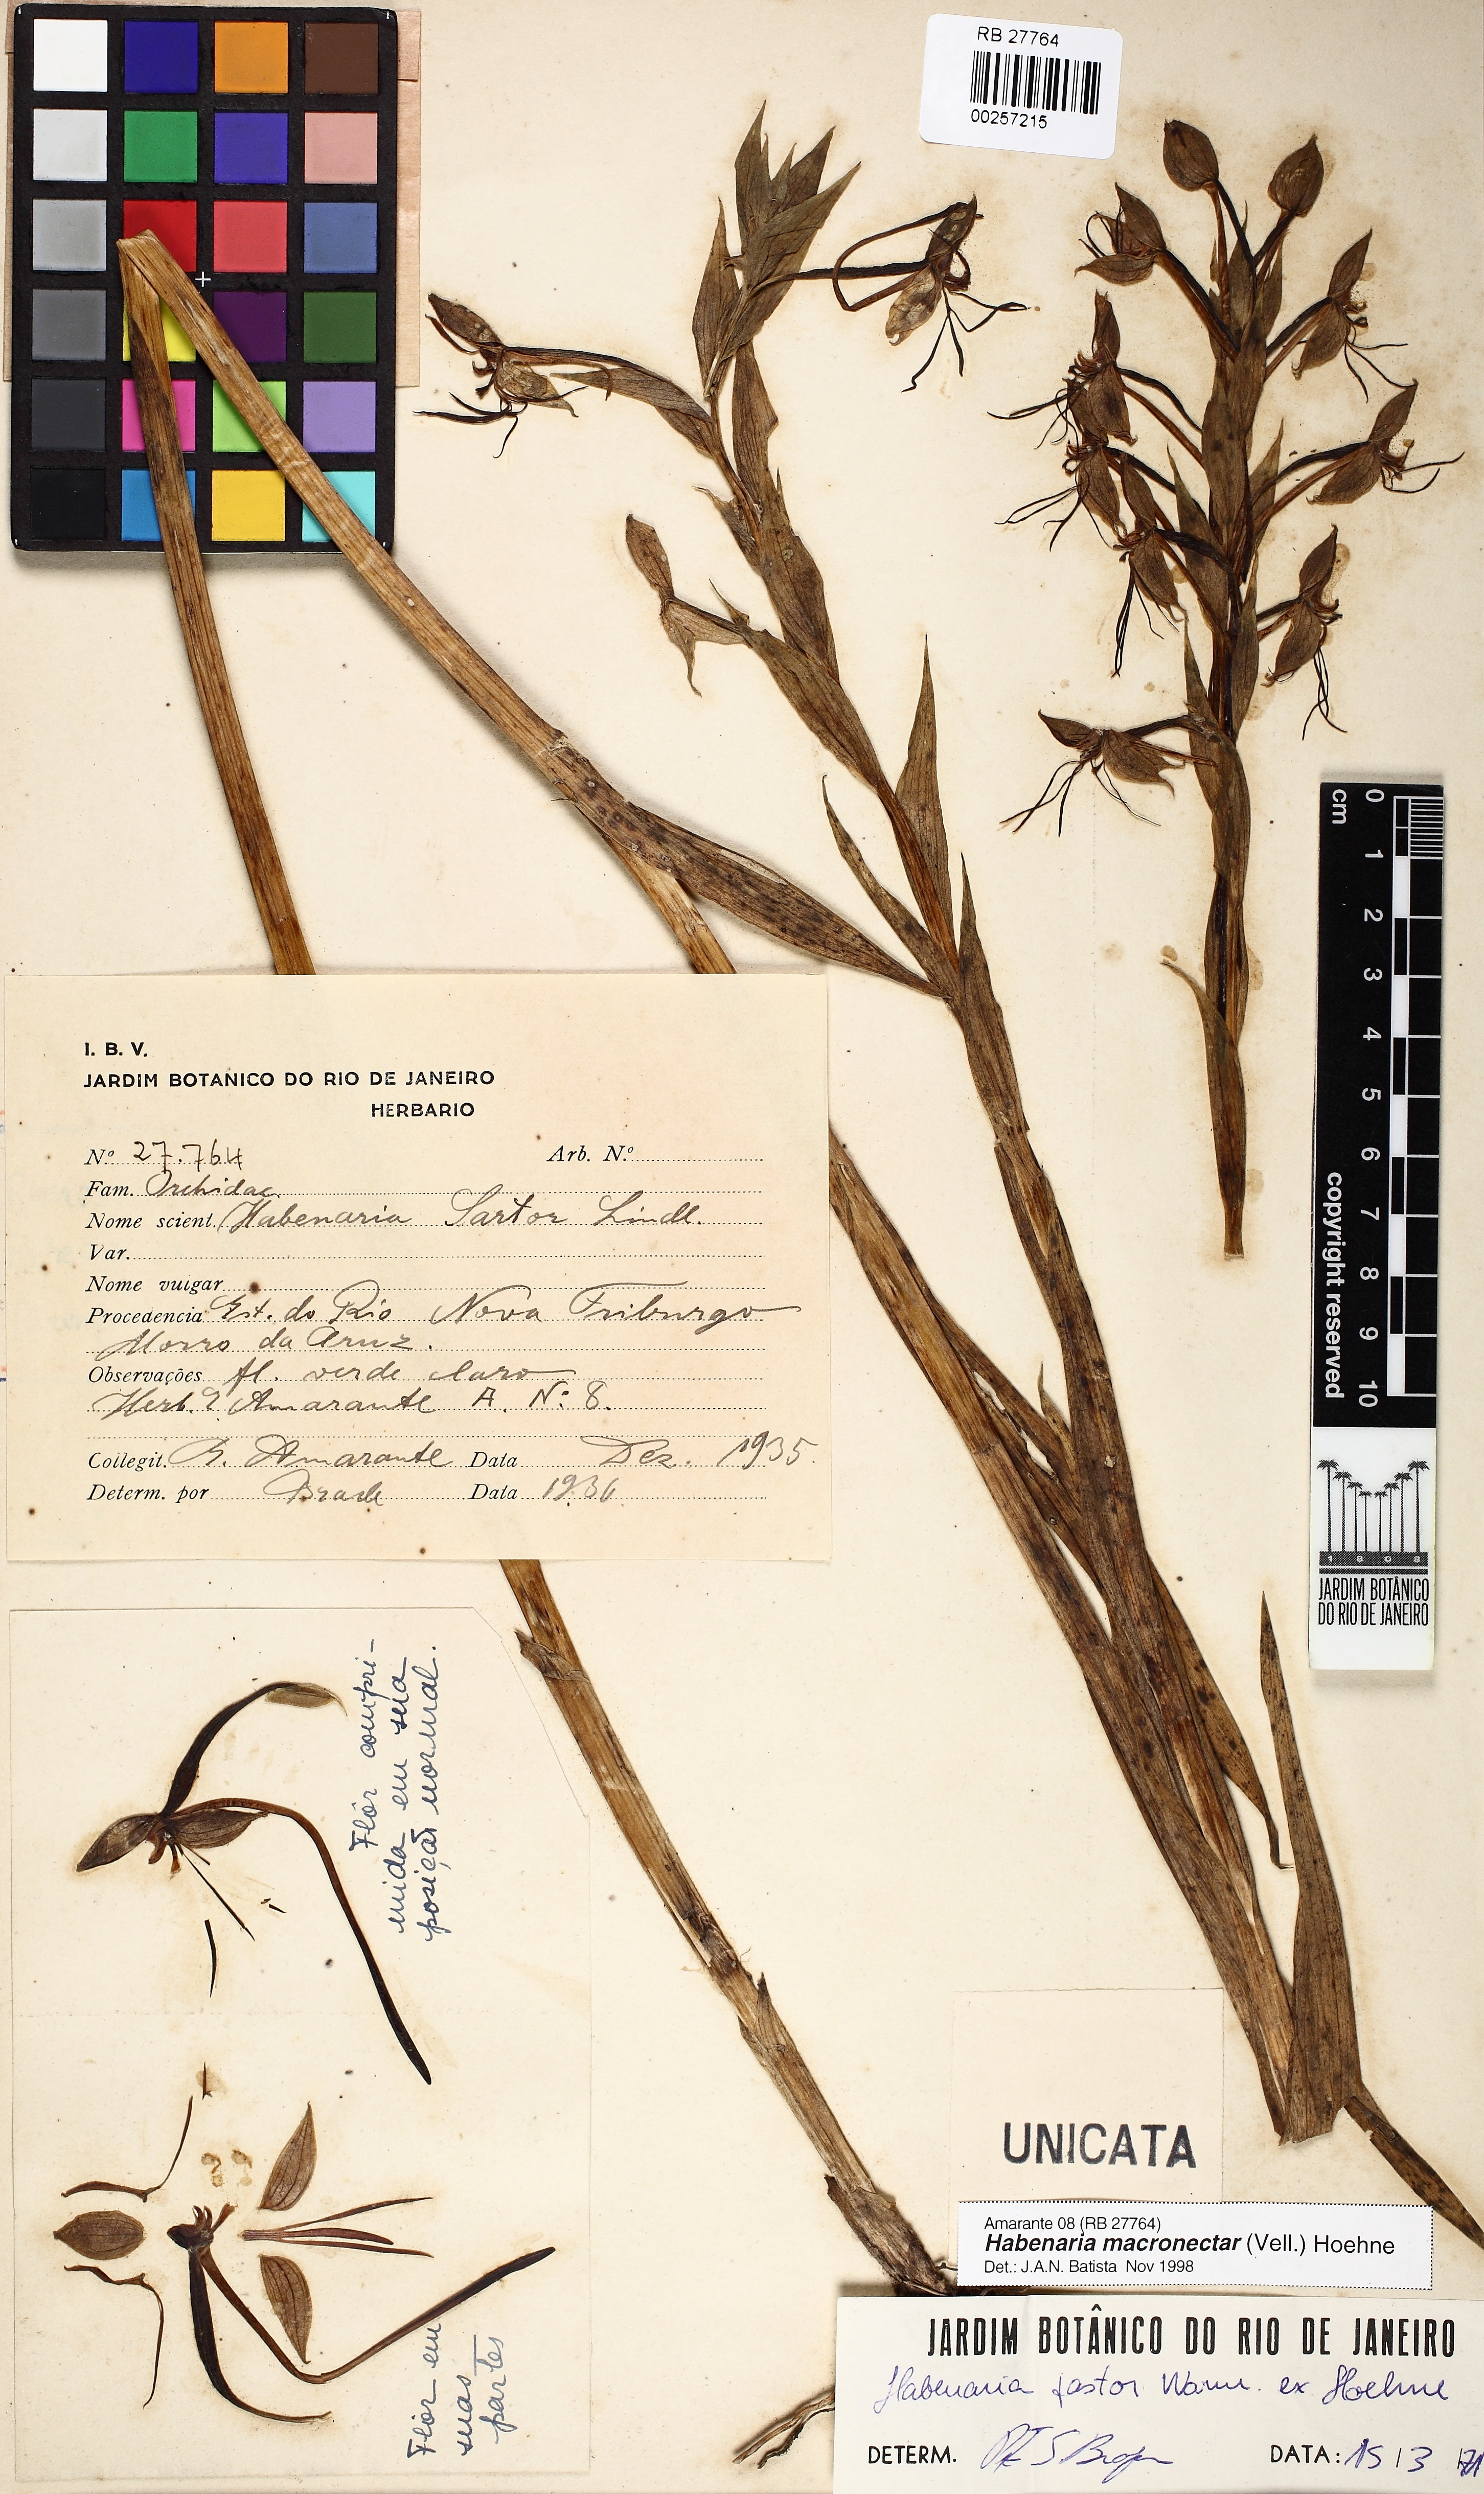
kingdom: Plantae
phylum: Tracheophyta
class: Liliopsida
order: Asparagales
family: Orchidaceae
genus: Habenaria
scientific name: Habenaria macronectar
